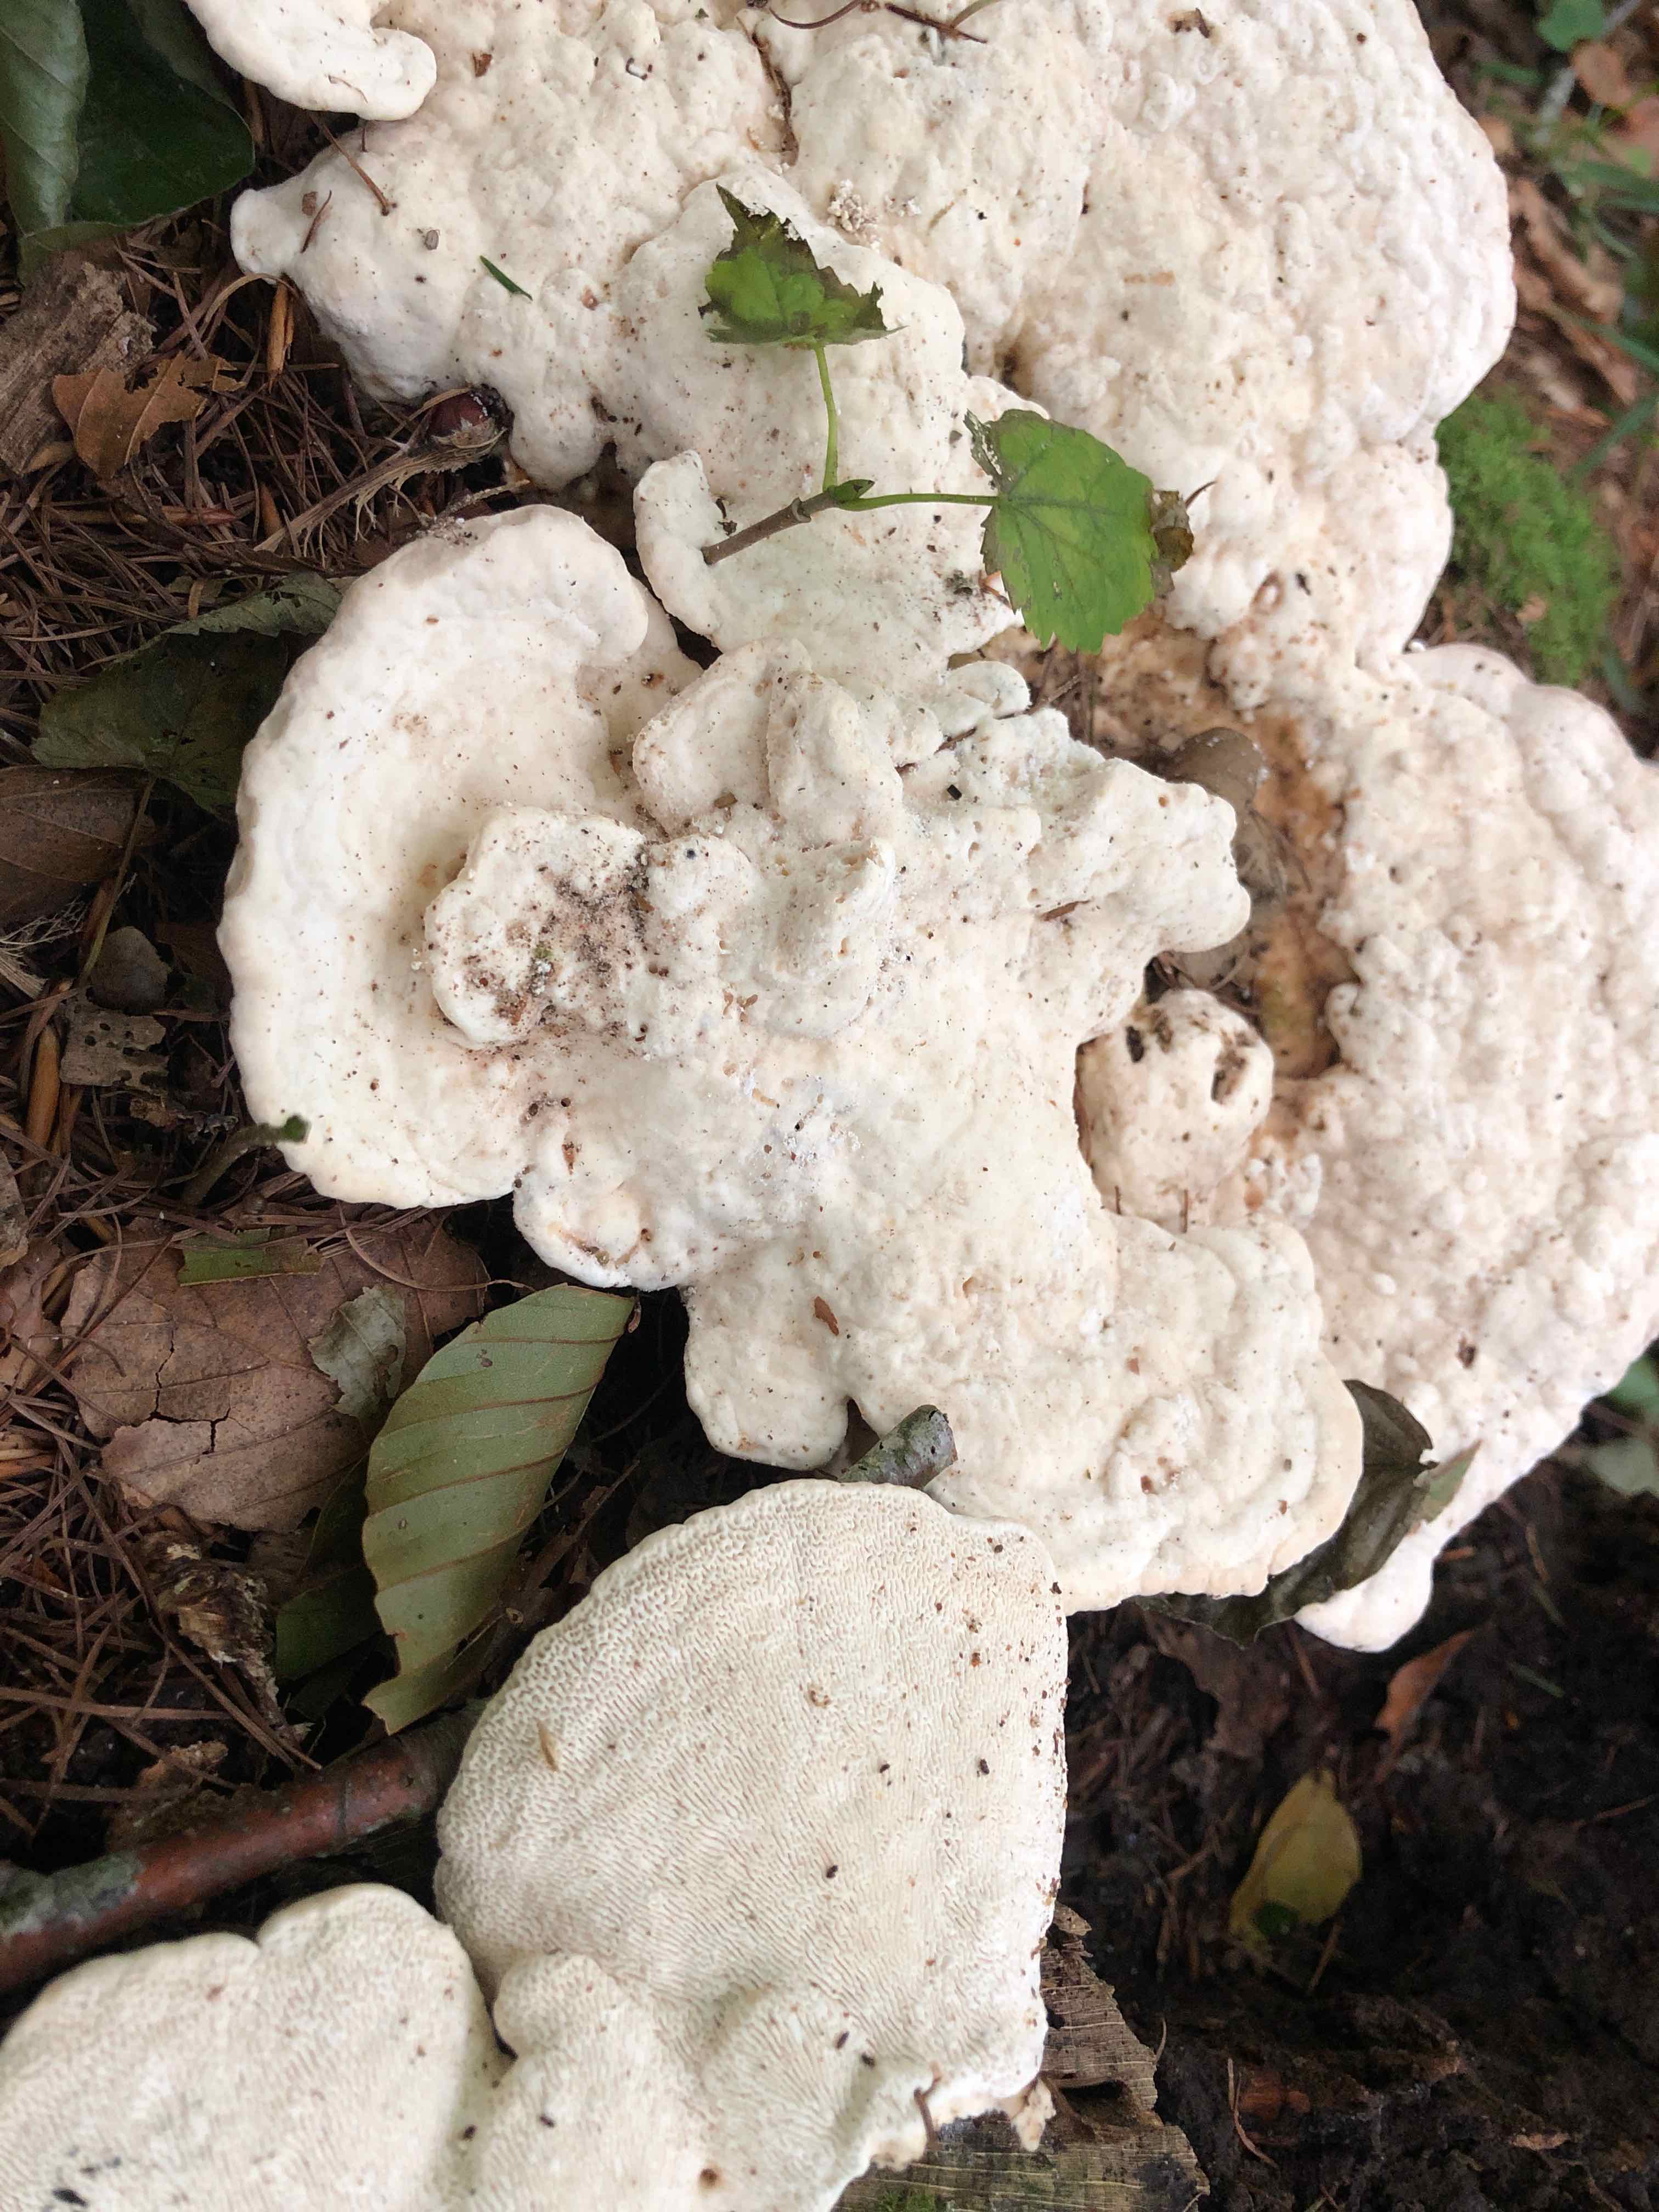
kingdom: Fungi
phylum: Basidiomycota
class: Agaricomycetes
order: Polyporales
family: Polyporaceae
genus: Trametes
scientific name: Trametes gibbosa
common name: puklet læderporesvamp
